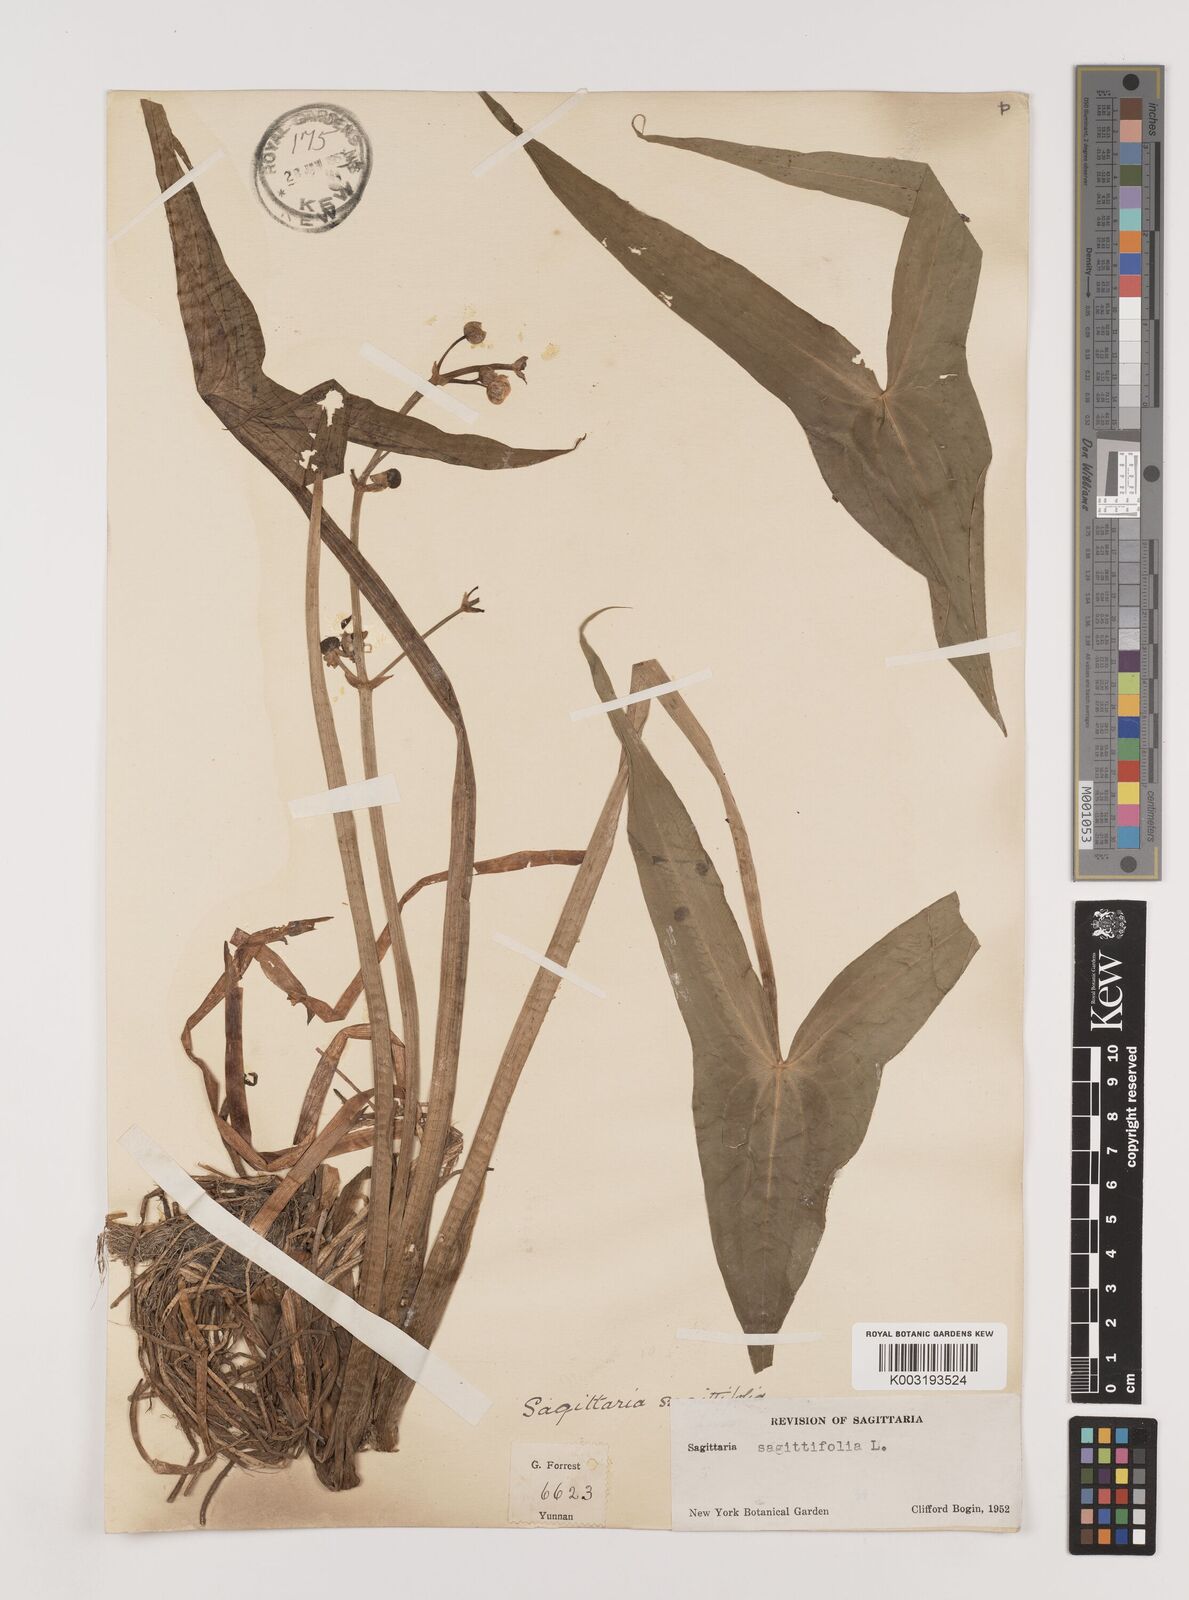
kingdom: Plantae
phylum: Tracheophyta
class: Liliopsida
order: Alismatales
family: Alismataceae
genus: Sagittaria
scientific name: Sagittaria sagittifolia
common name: Arrowhead
